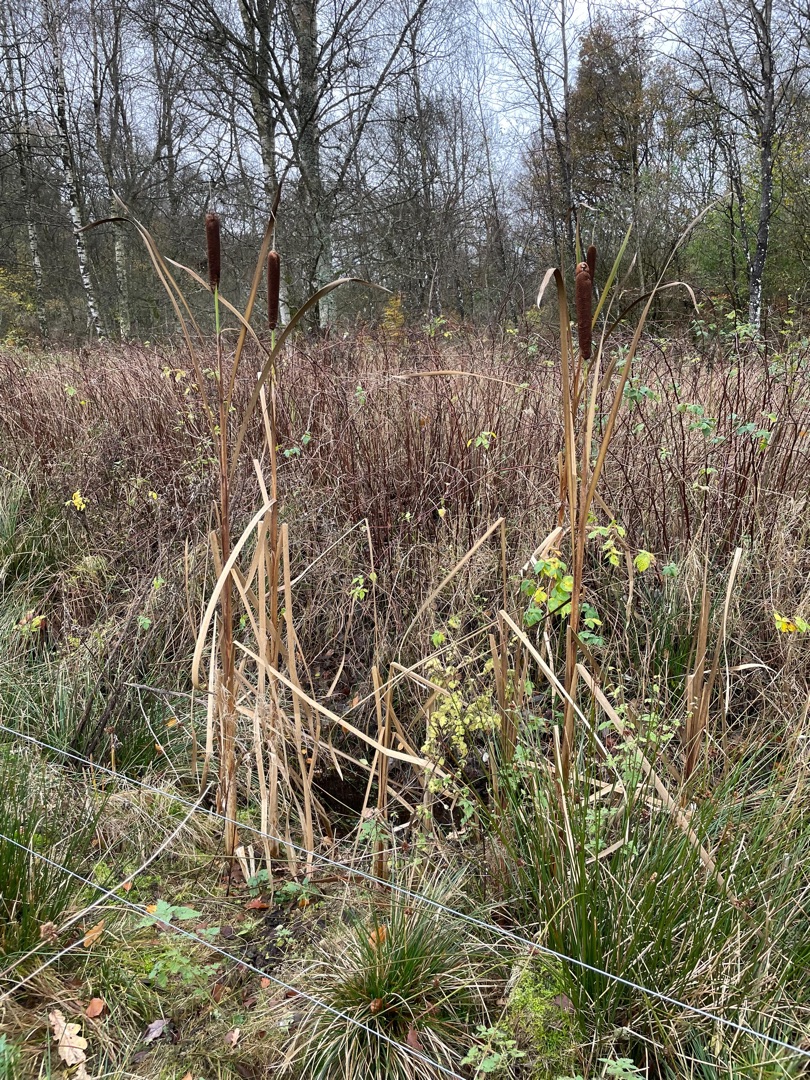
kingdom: Plantae
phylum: Tracheophyta
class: Liliopsida
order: Poales
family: Typhaceae
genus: Typha
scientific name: Typha latifolia
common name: Bredbladet dunhammer
